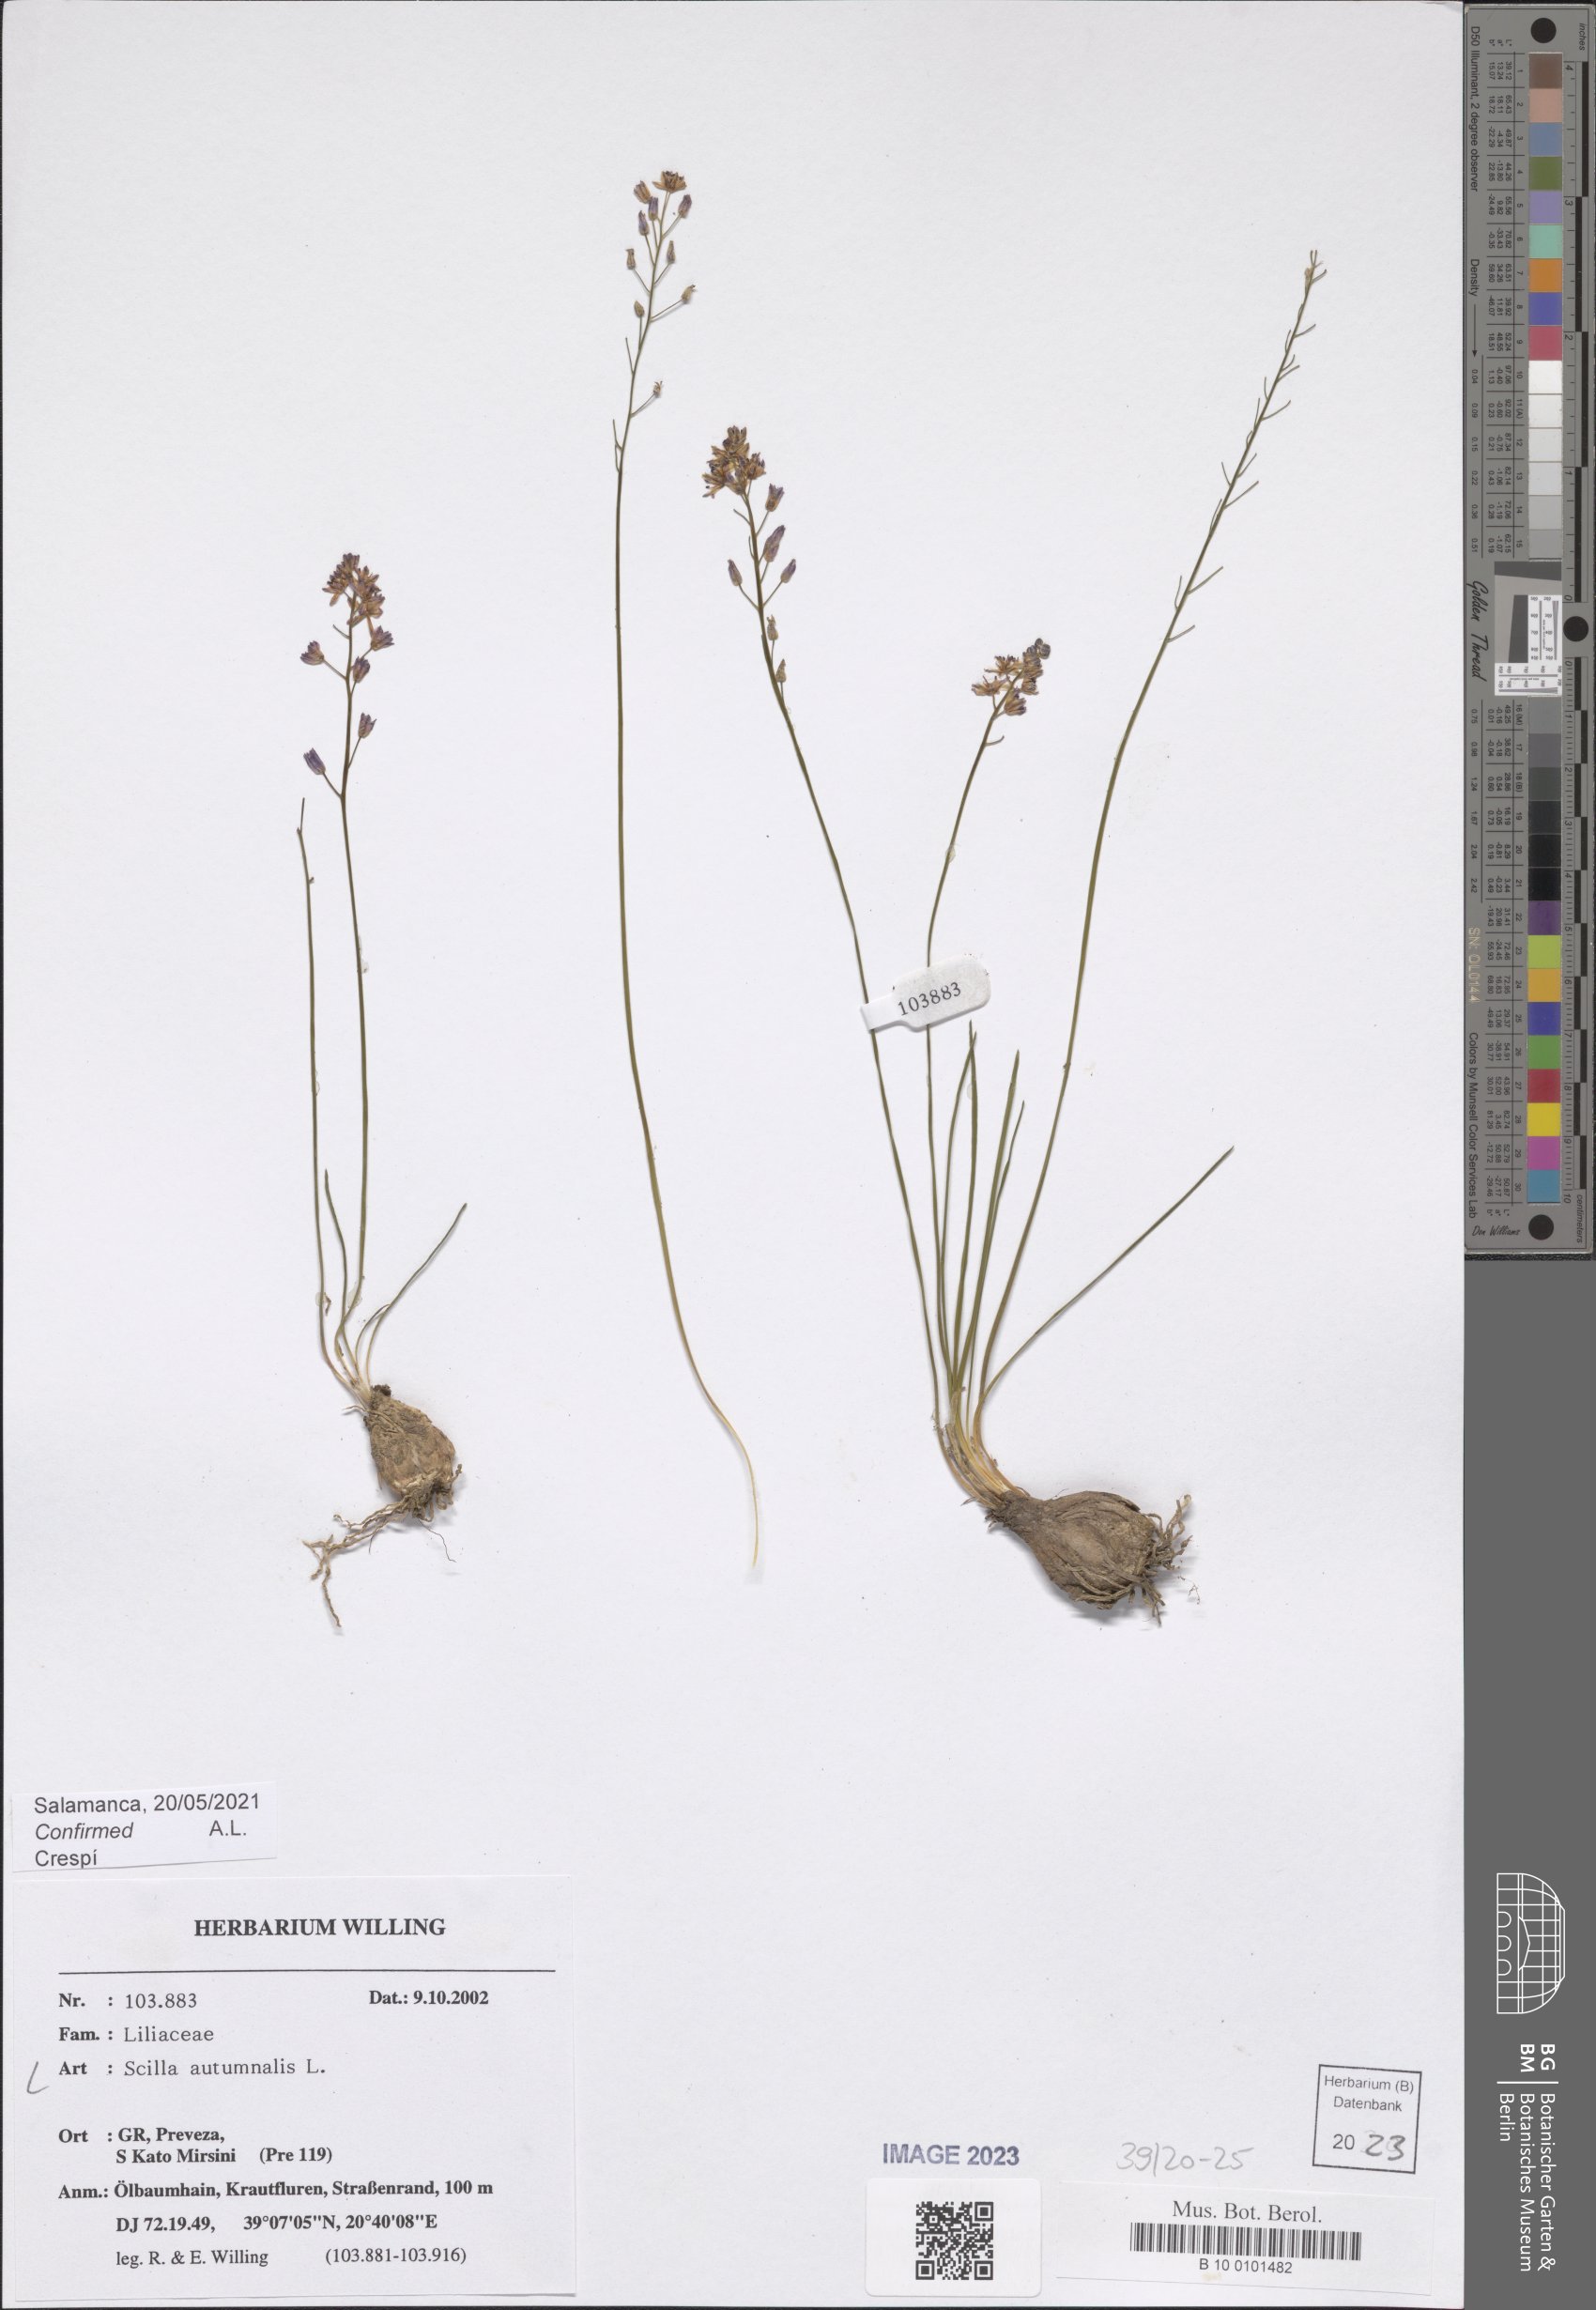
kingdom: Plantae
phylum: Tracheophyta
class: Liliopsida
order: Asparagales
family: Asparagaceae
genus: Prospero
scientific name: Prospero autumnale
